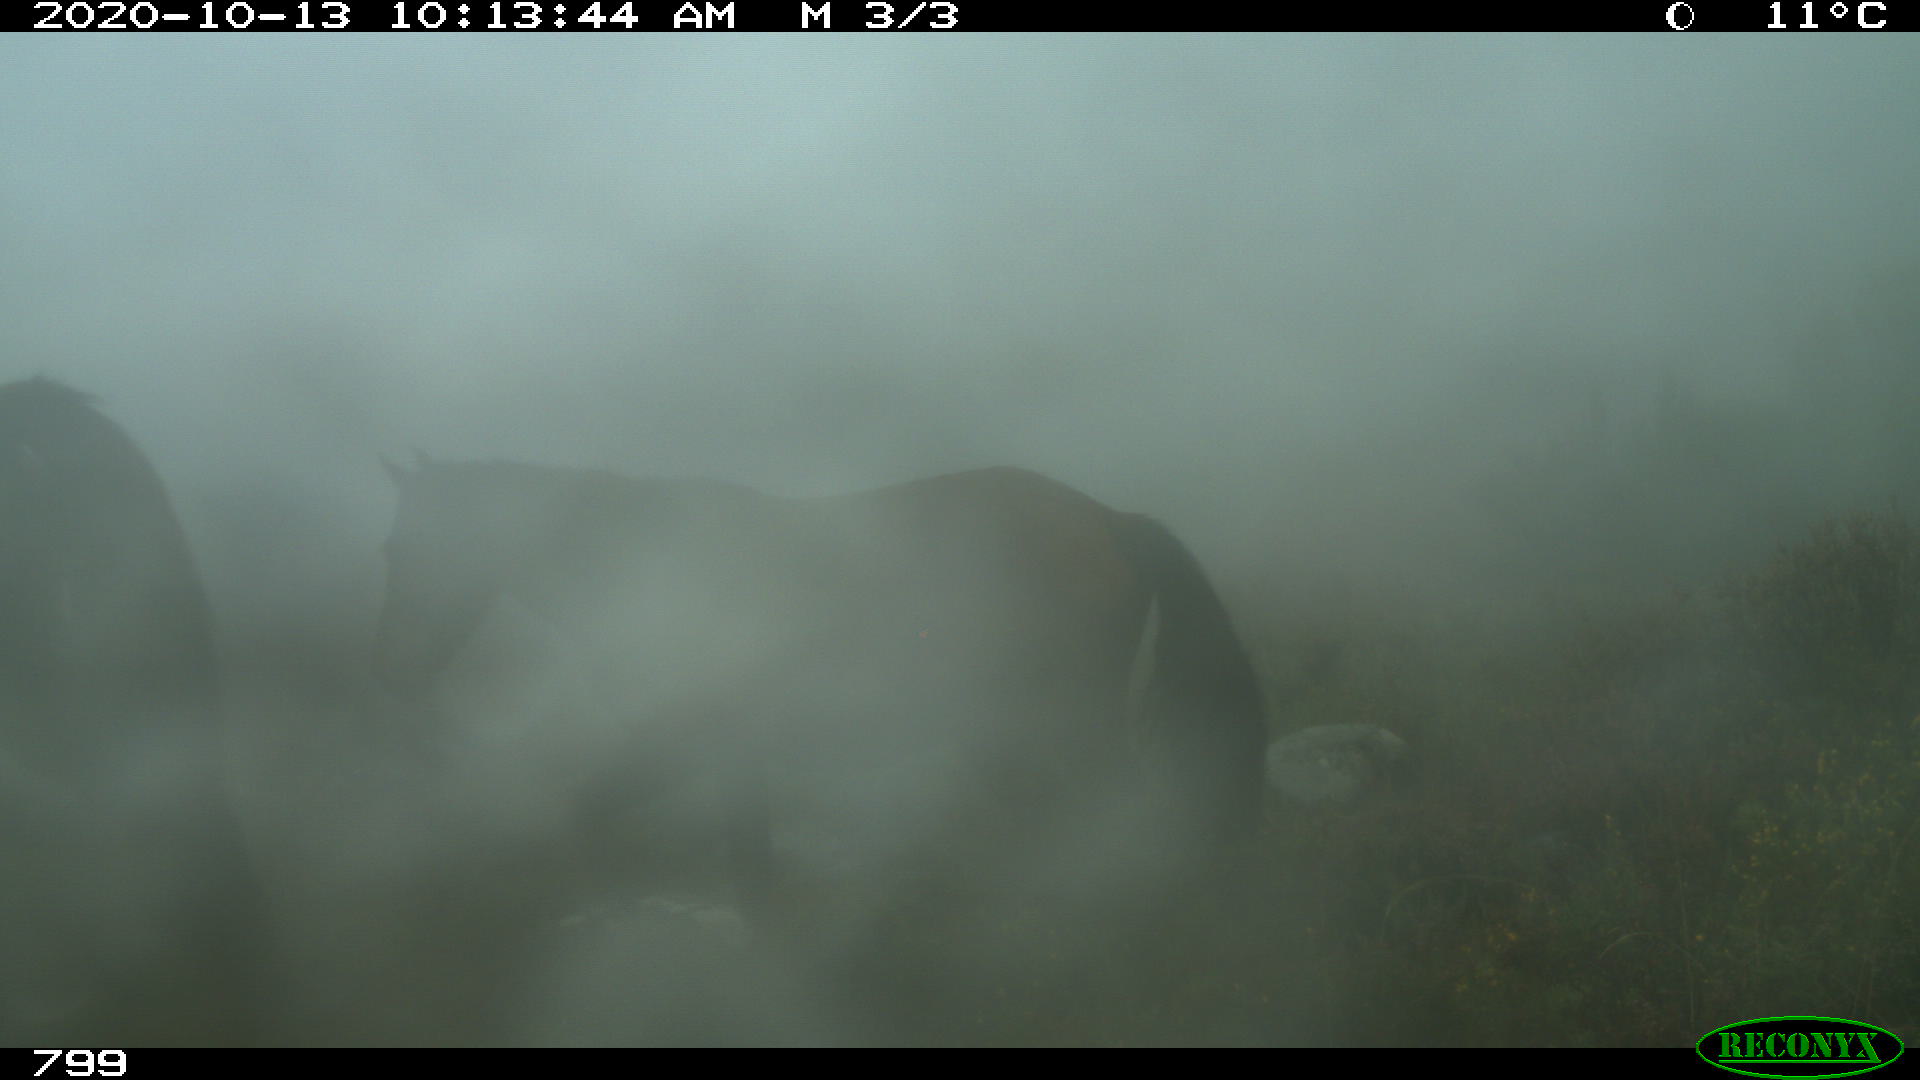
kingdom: Animalia
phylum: Chordata
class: Mammalia
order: Perissodactyla
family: Equidae
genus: Equus
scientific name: Equus caballus
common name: Horse
